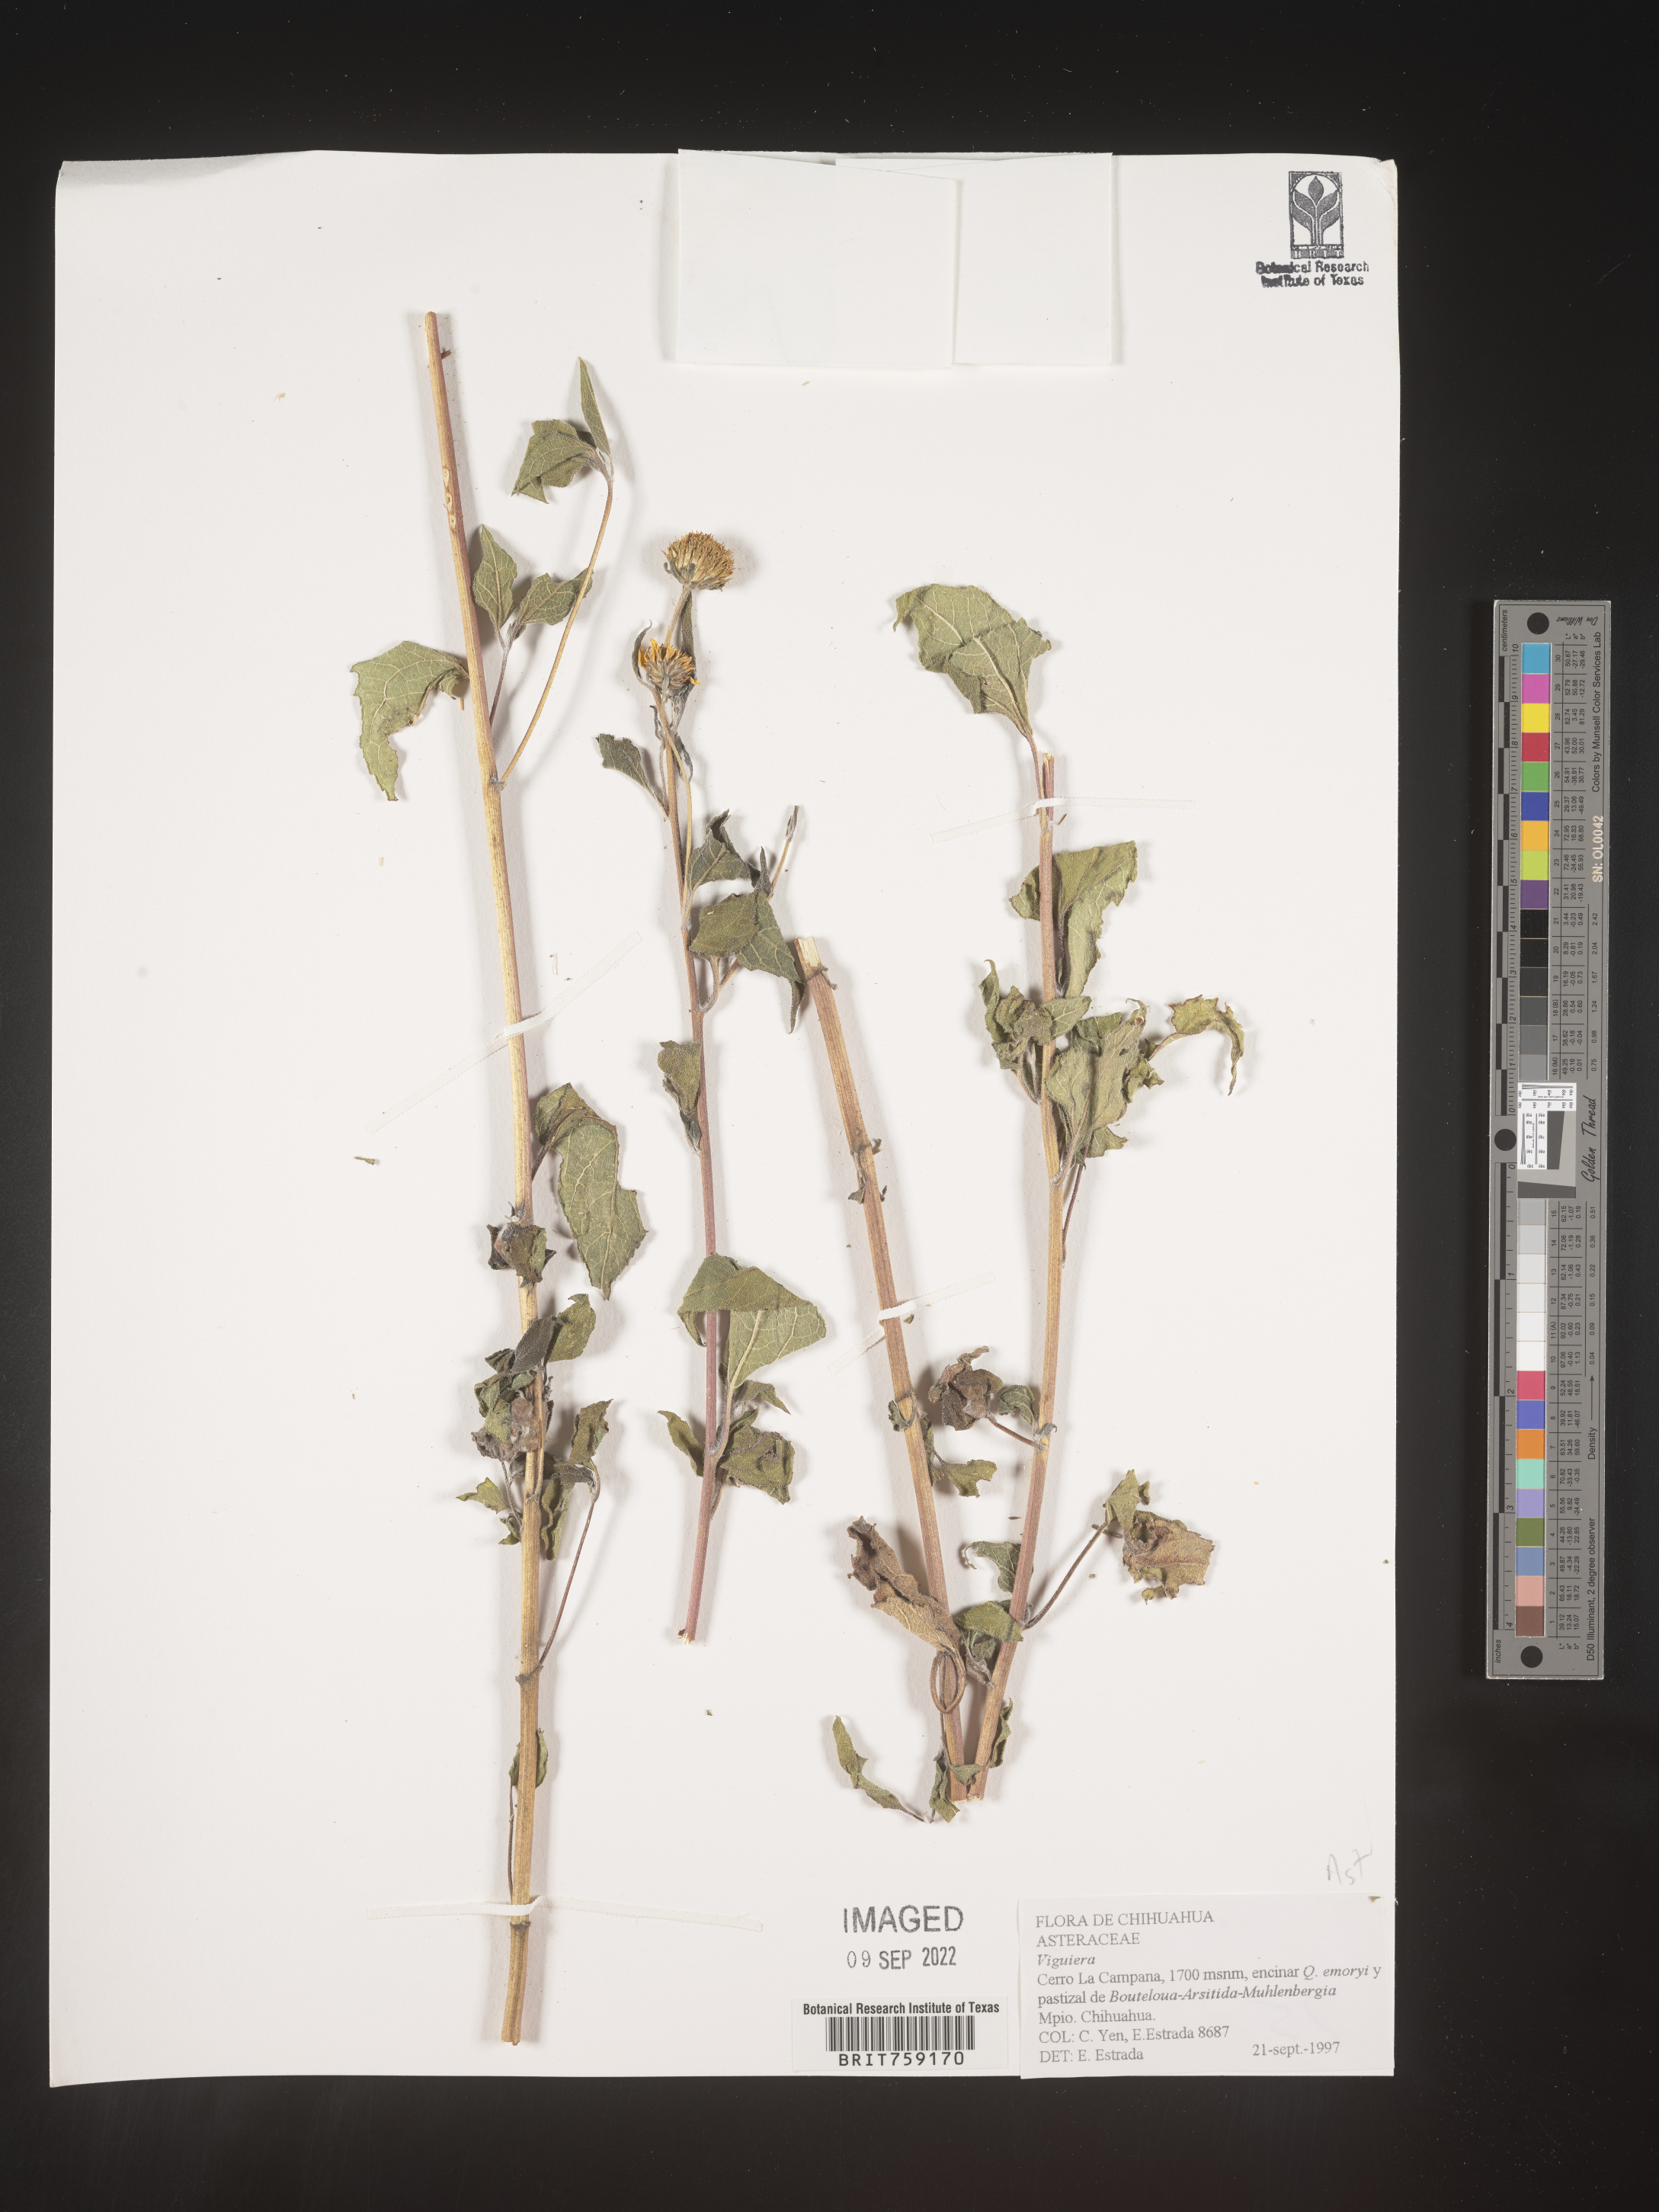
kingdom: Plantae
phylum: Tracheophyta
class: Magnoliopsida
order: Asterales
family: Asteraceae
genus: Viguiera
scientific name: Viguiera
